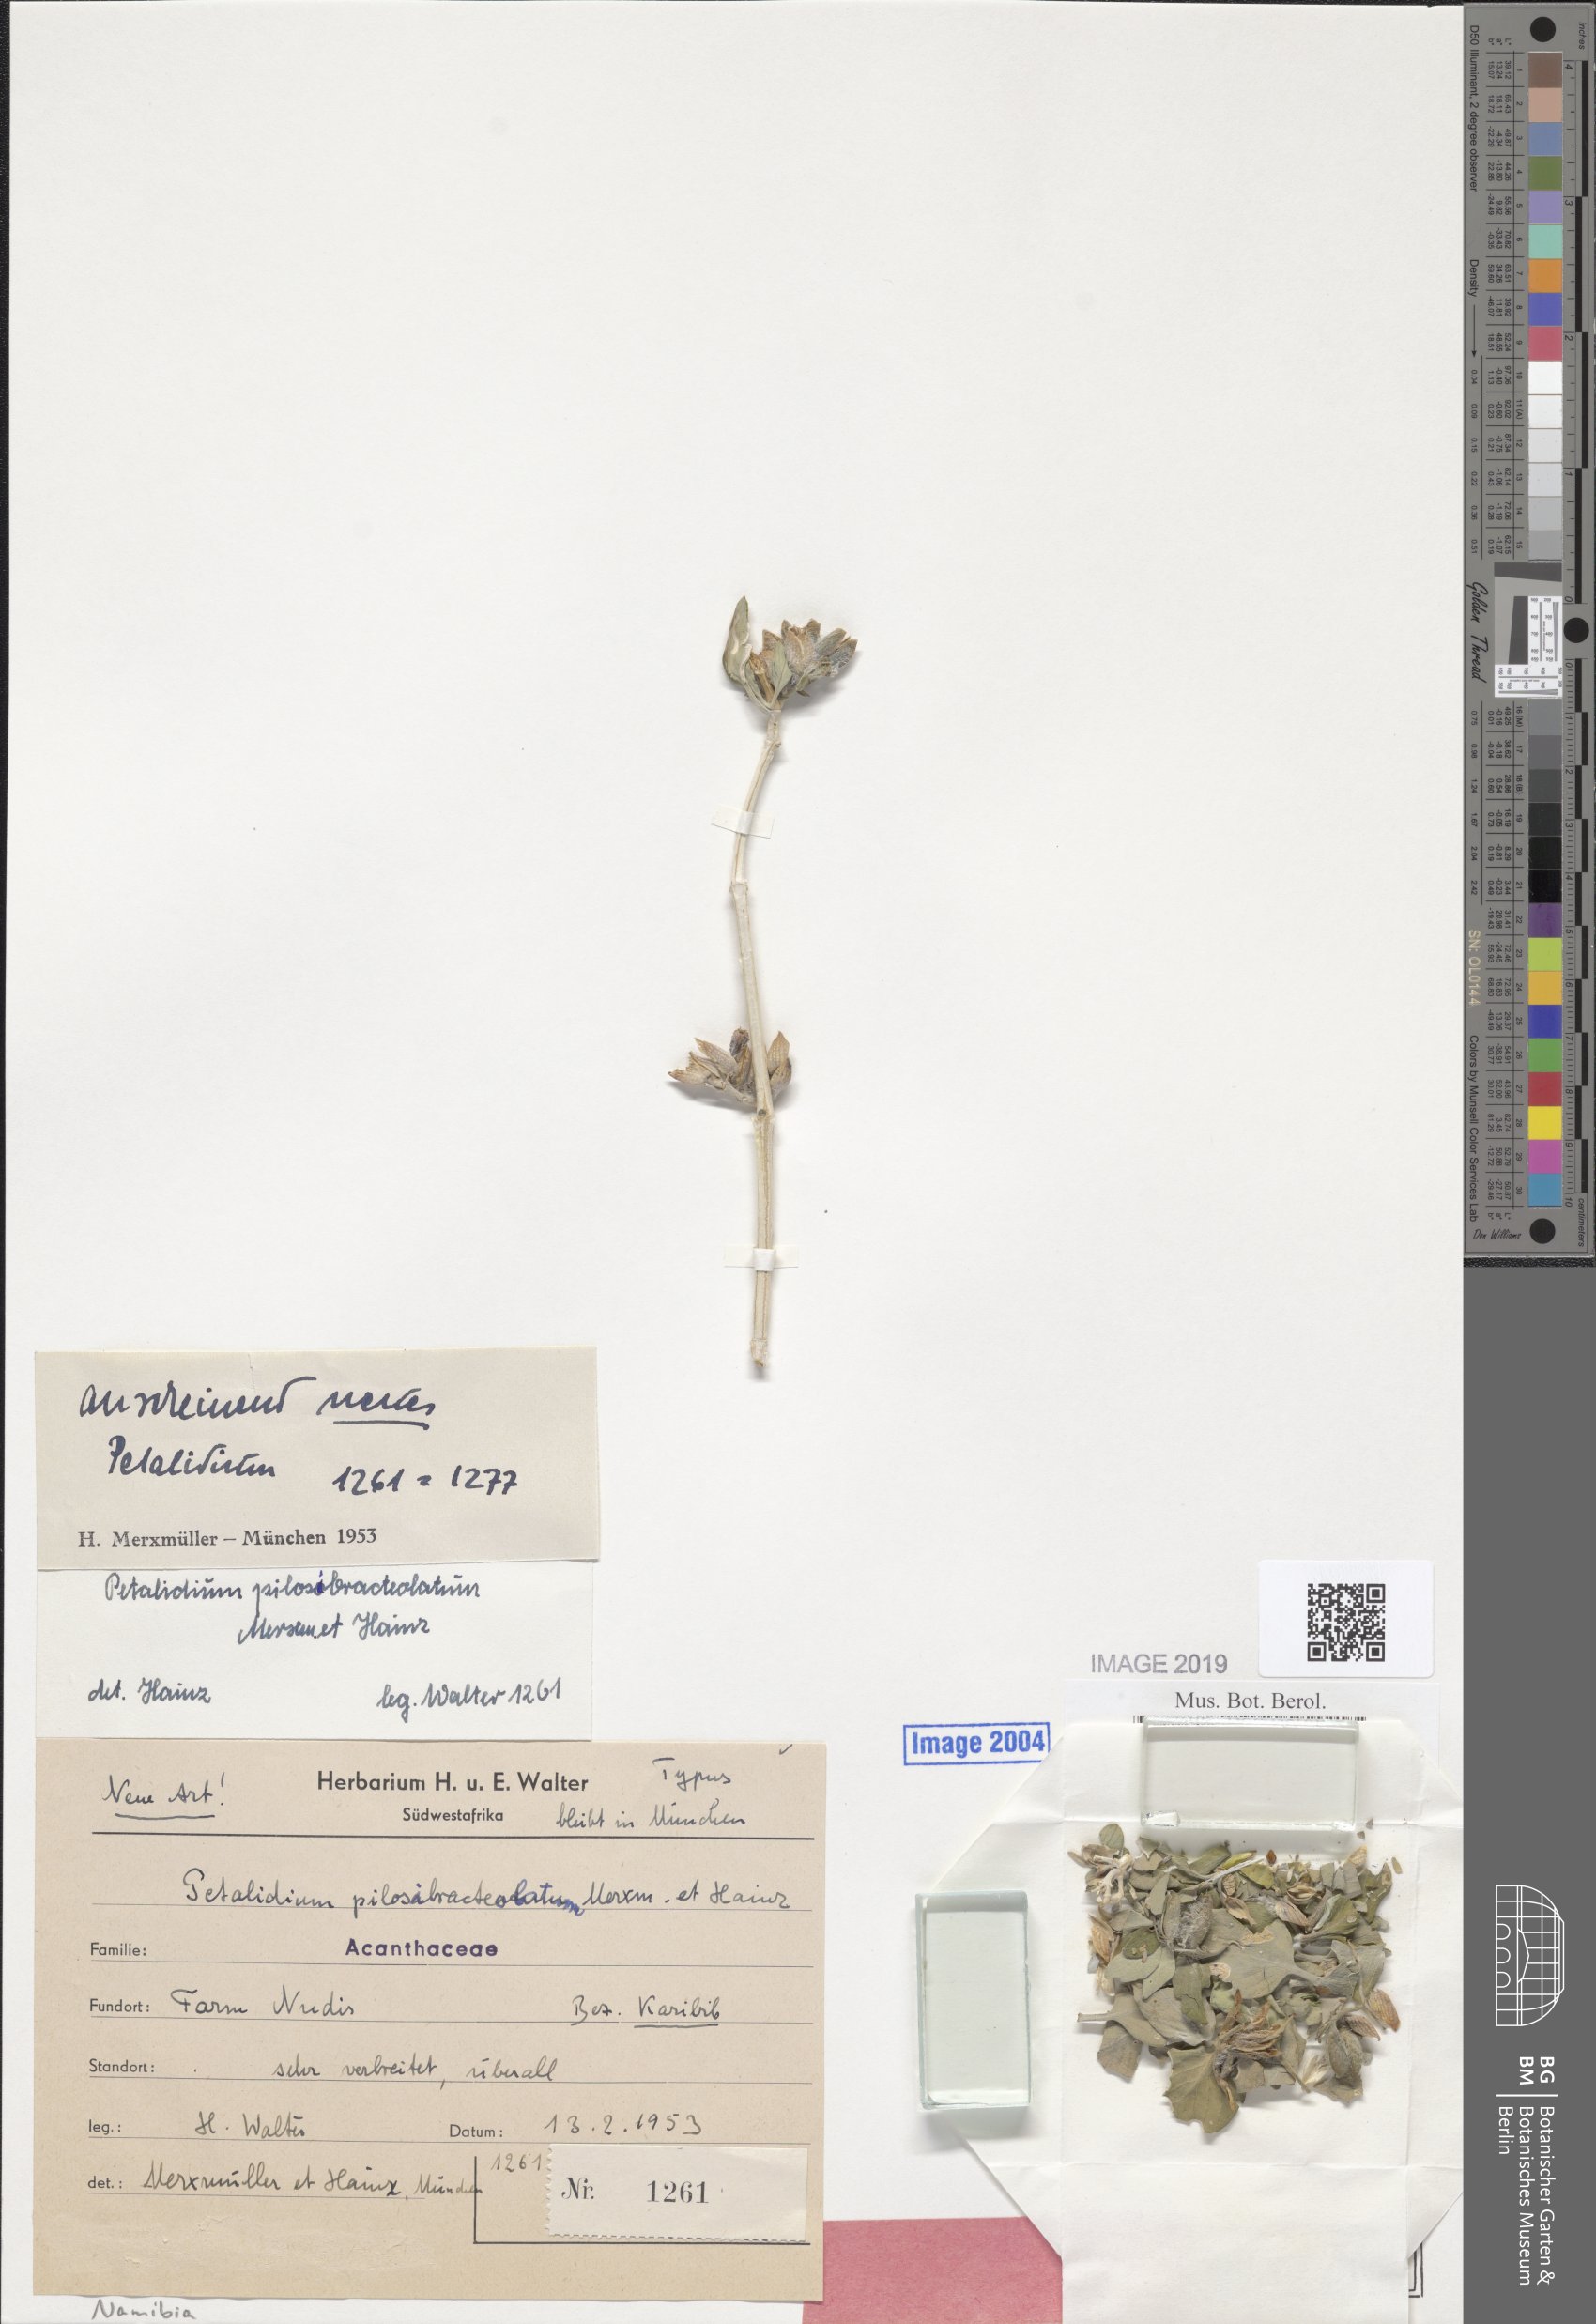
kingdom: Plantae
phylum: Tracheophyta
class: Magnoliopsida
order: Lamiales
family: Acanthaceae
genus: Petalidium
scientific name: Petalidium pilosibracteolatum
